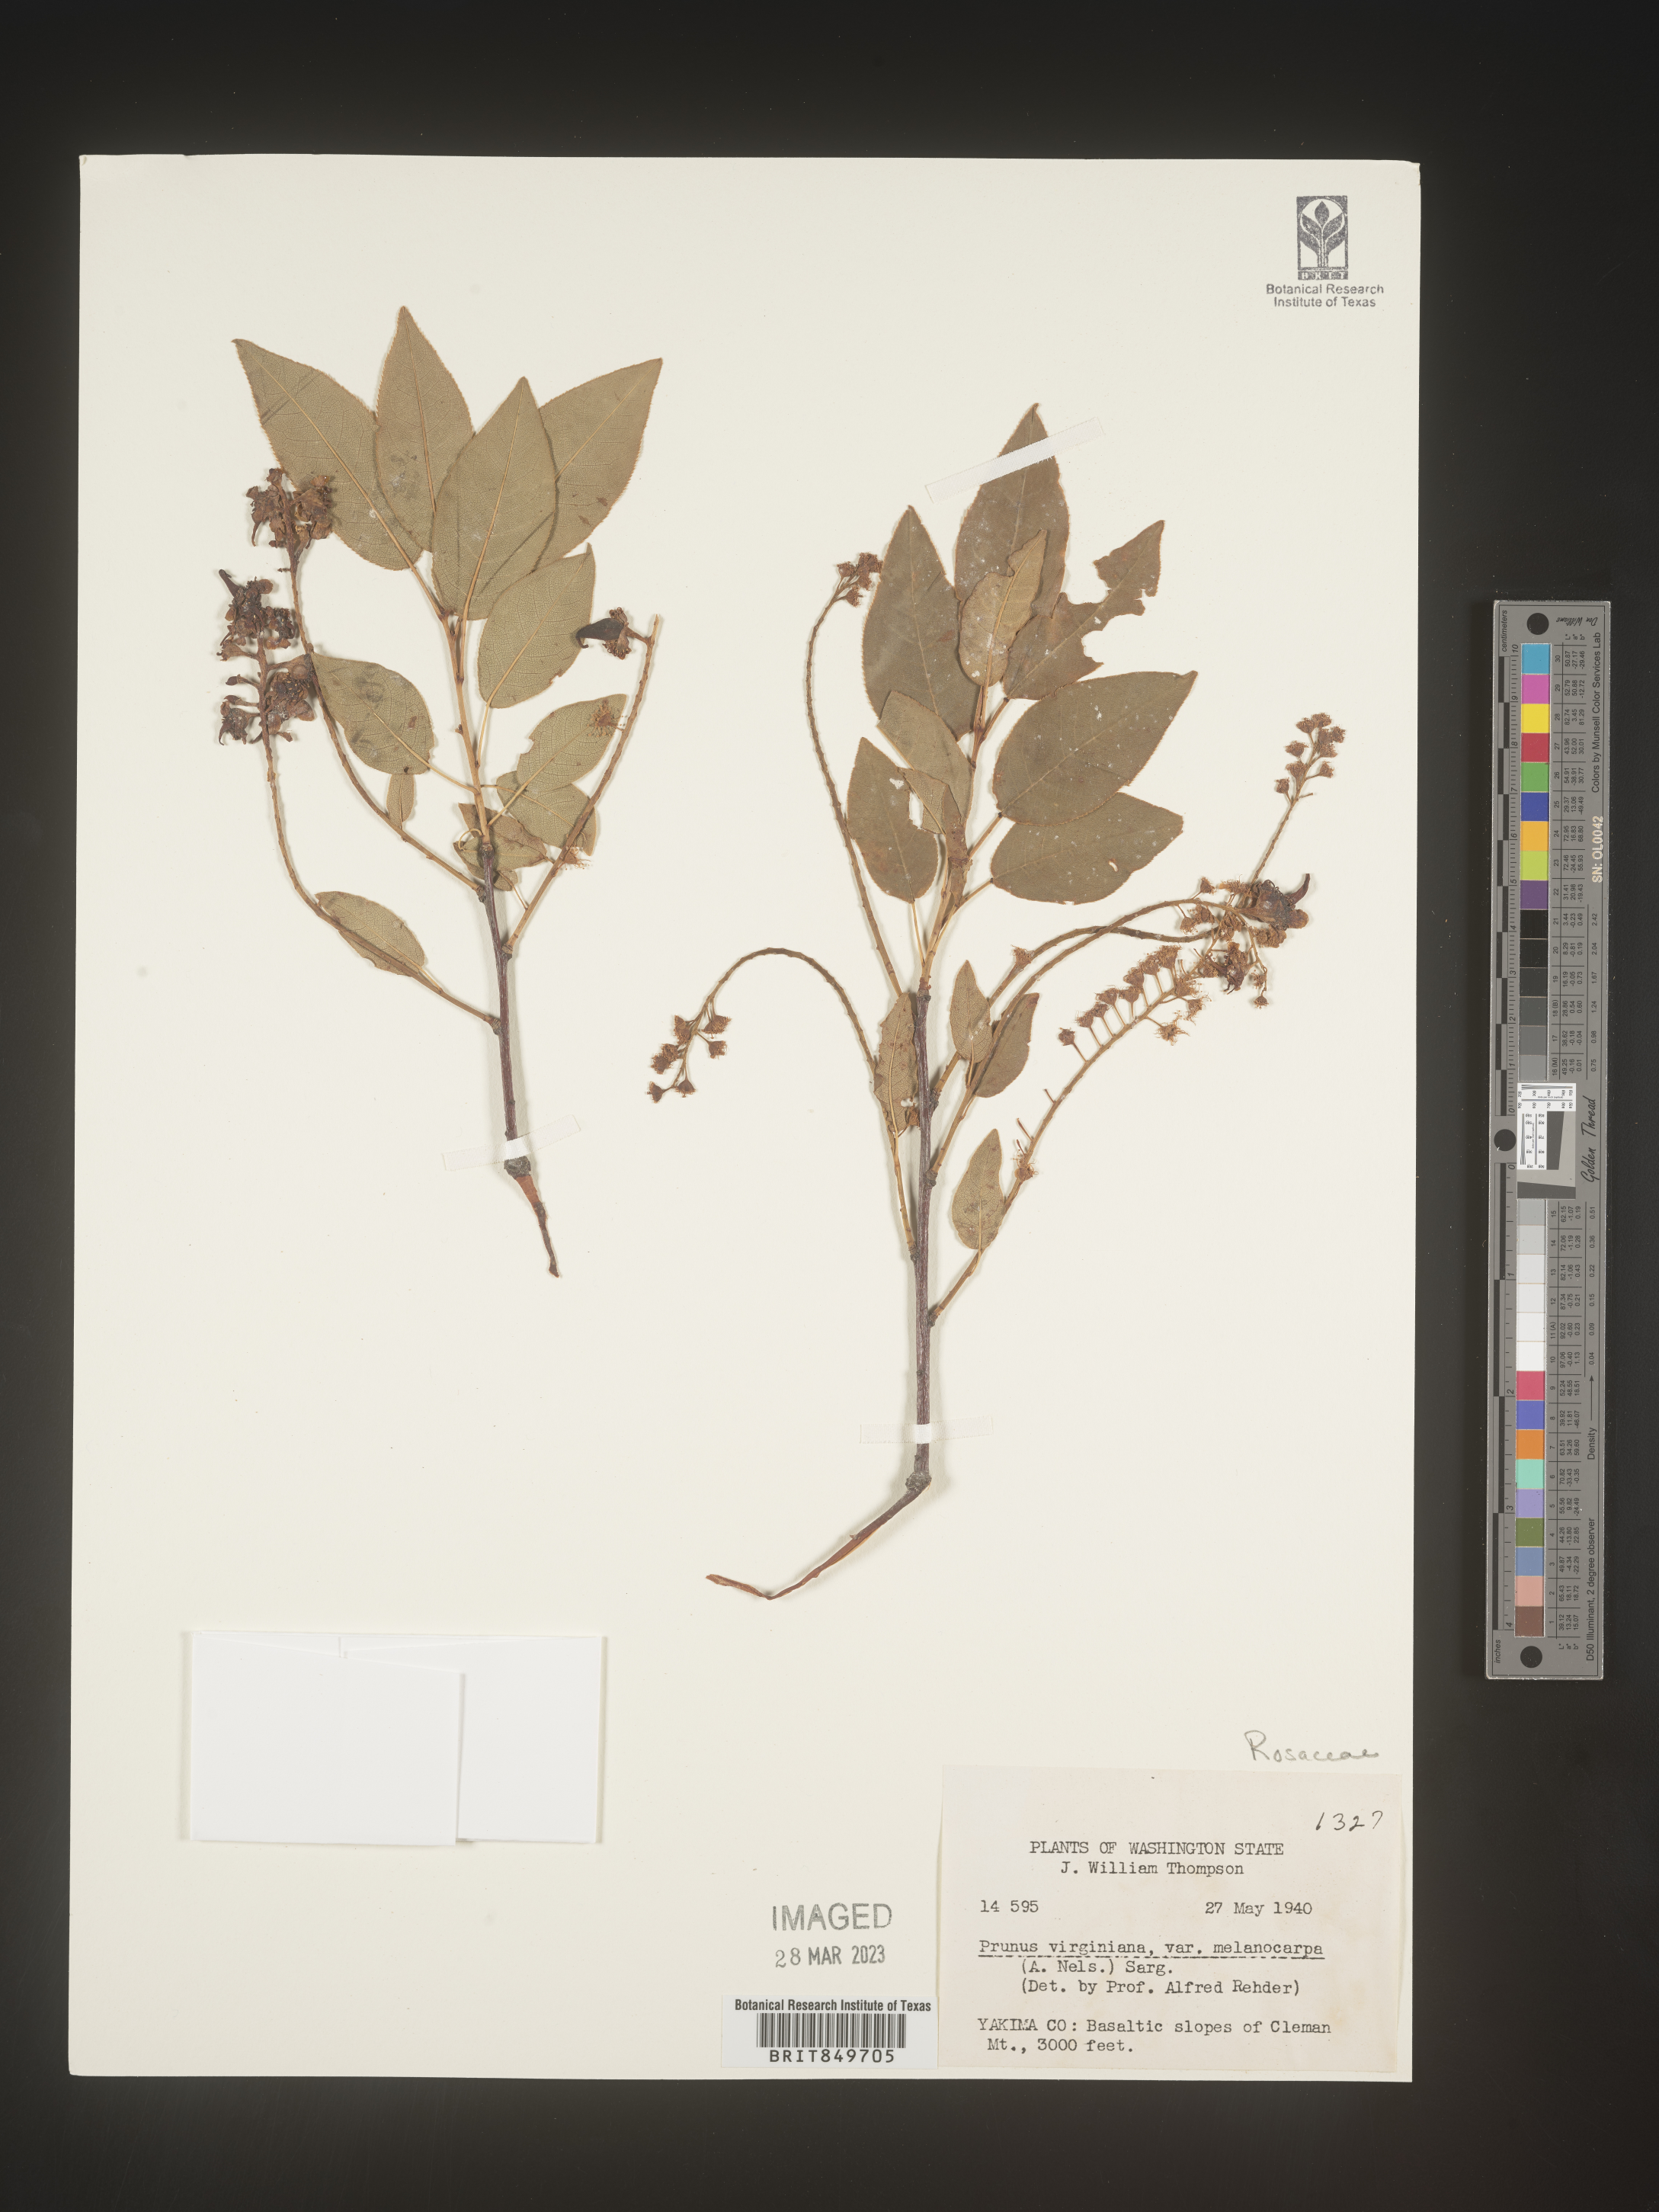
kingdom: Plantae
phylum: Tracheophyta
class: Magnoliopsida
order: Rosales
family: Rosaceae
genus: Prunus
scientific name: Prunus virginiana
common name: Chokecherry
